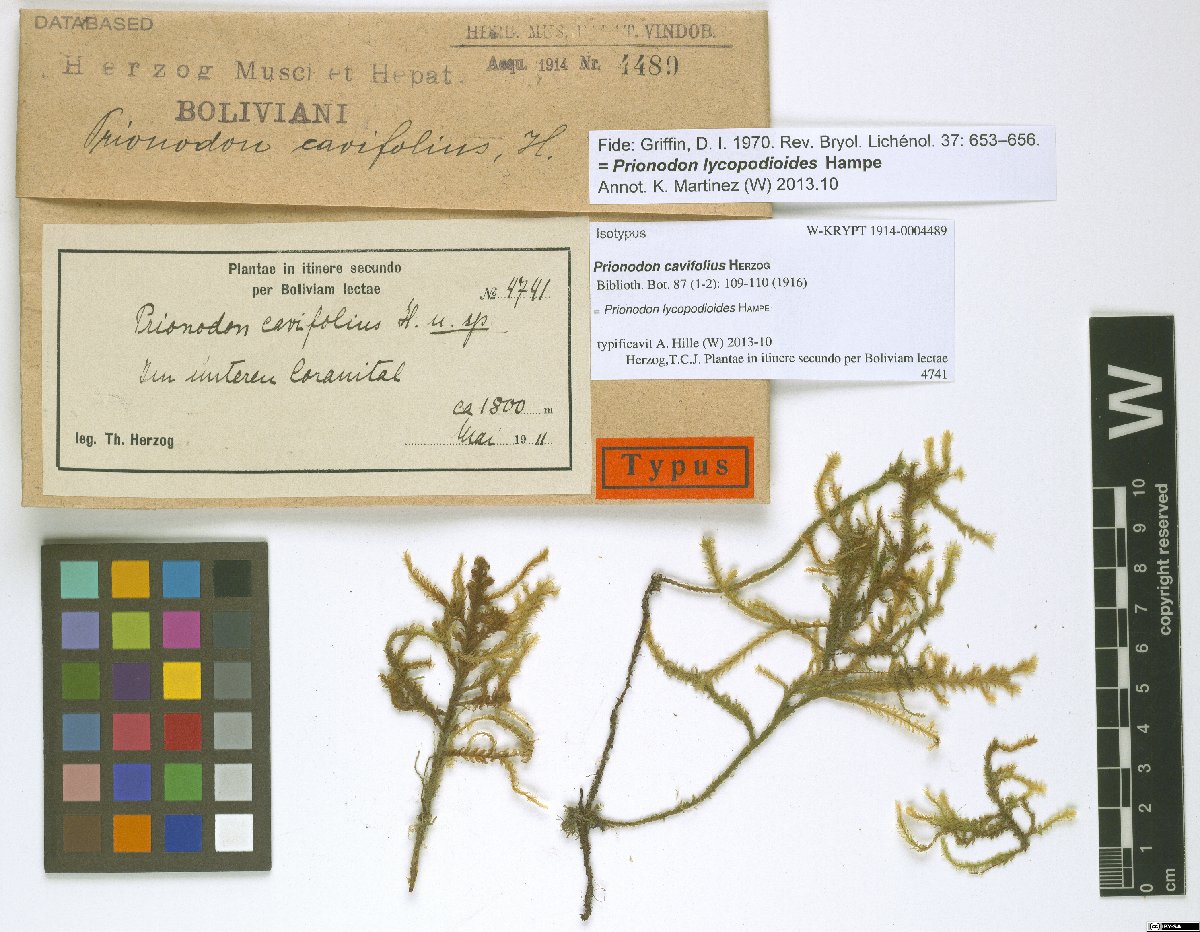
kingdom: Plantae
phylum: Bryophyta
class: Bryopsida
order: Hypnales
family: Prionodontaceae
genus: Prionodon
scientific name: Prionodon lycopodioides
